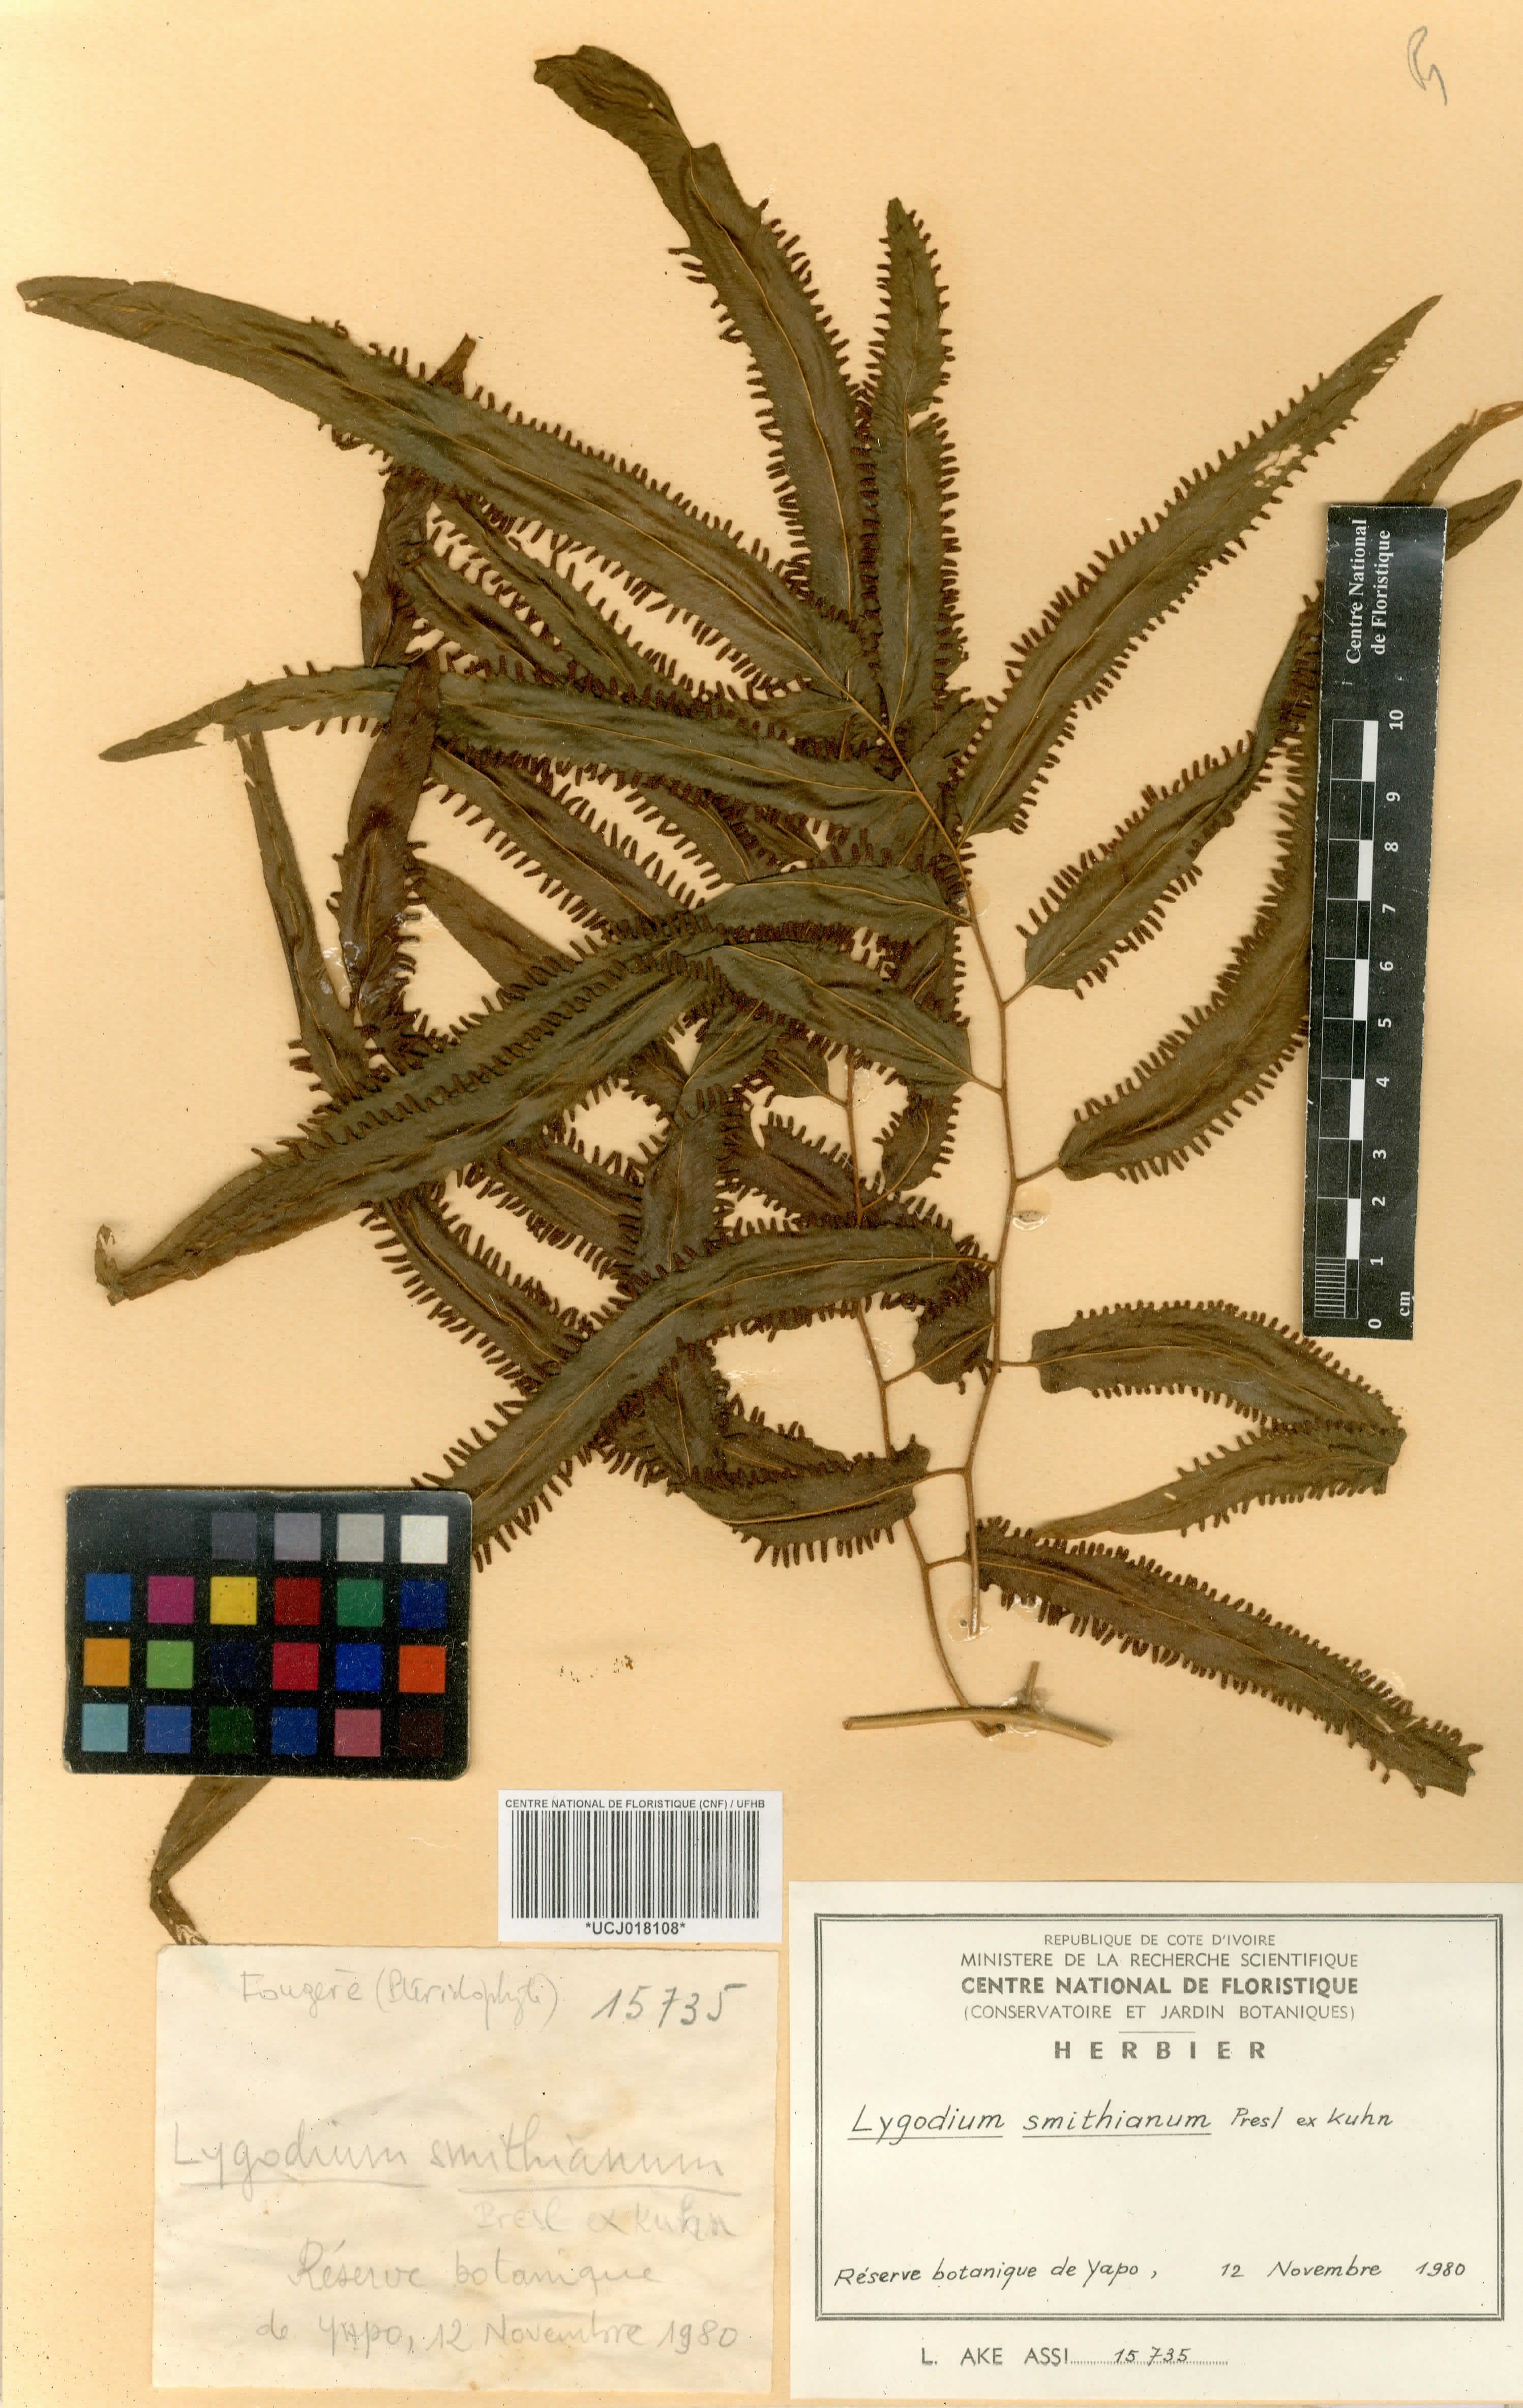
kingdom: Plantae
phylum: Tracheophyta
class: Polypodiopsida
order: Schizaeales
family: Lygodiaceae
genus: Lygodium
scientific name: Lygodium
